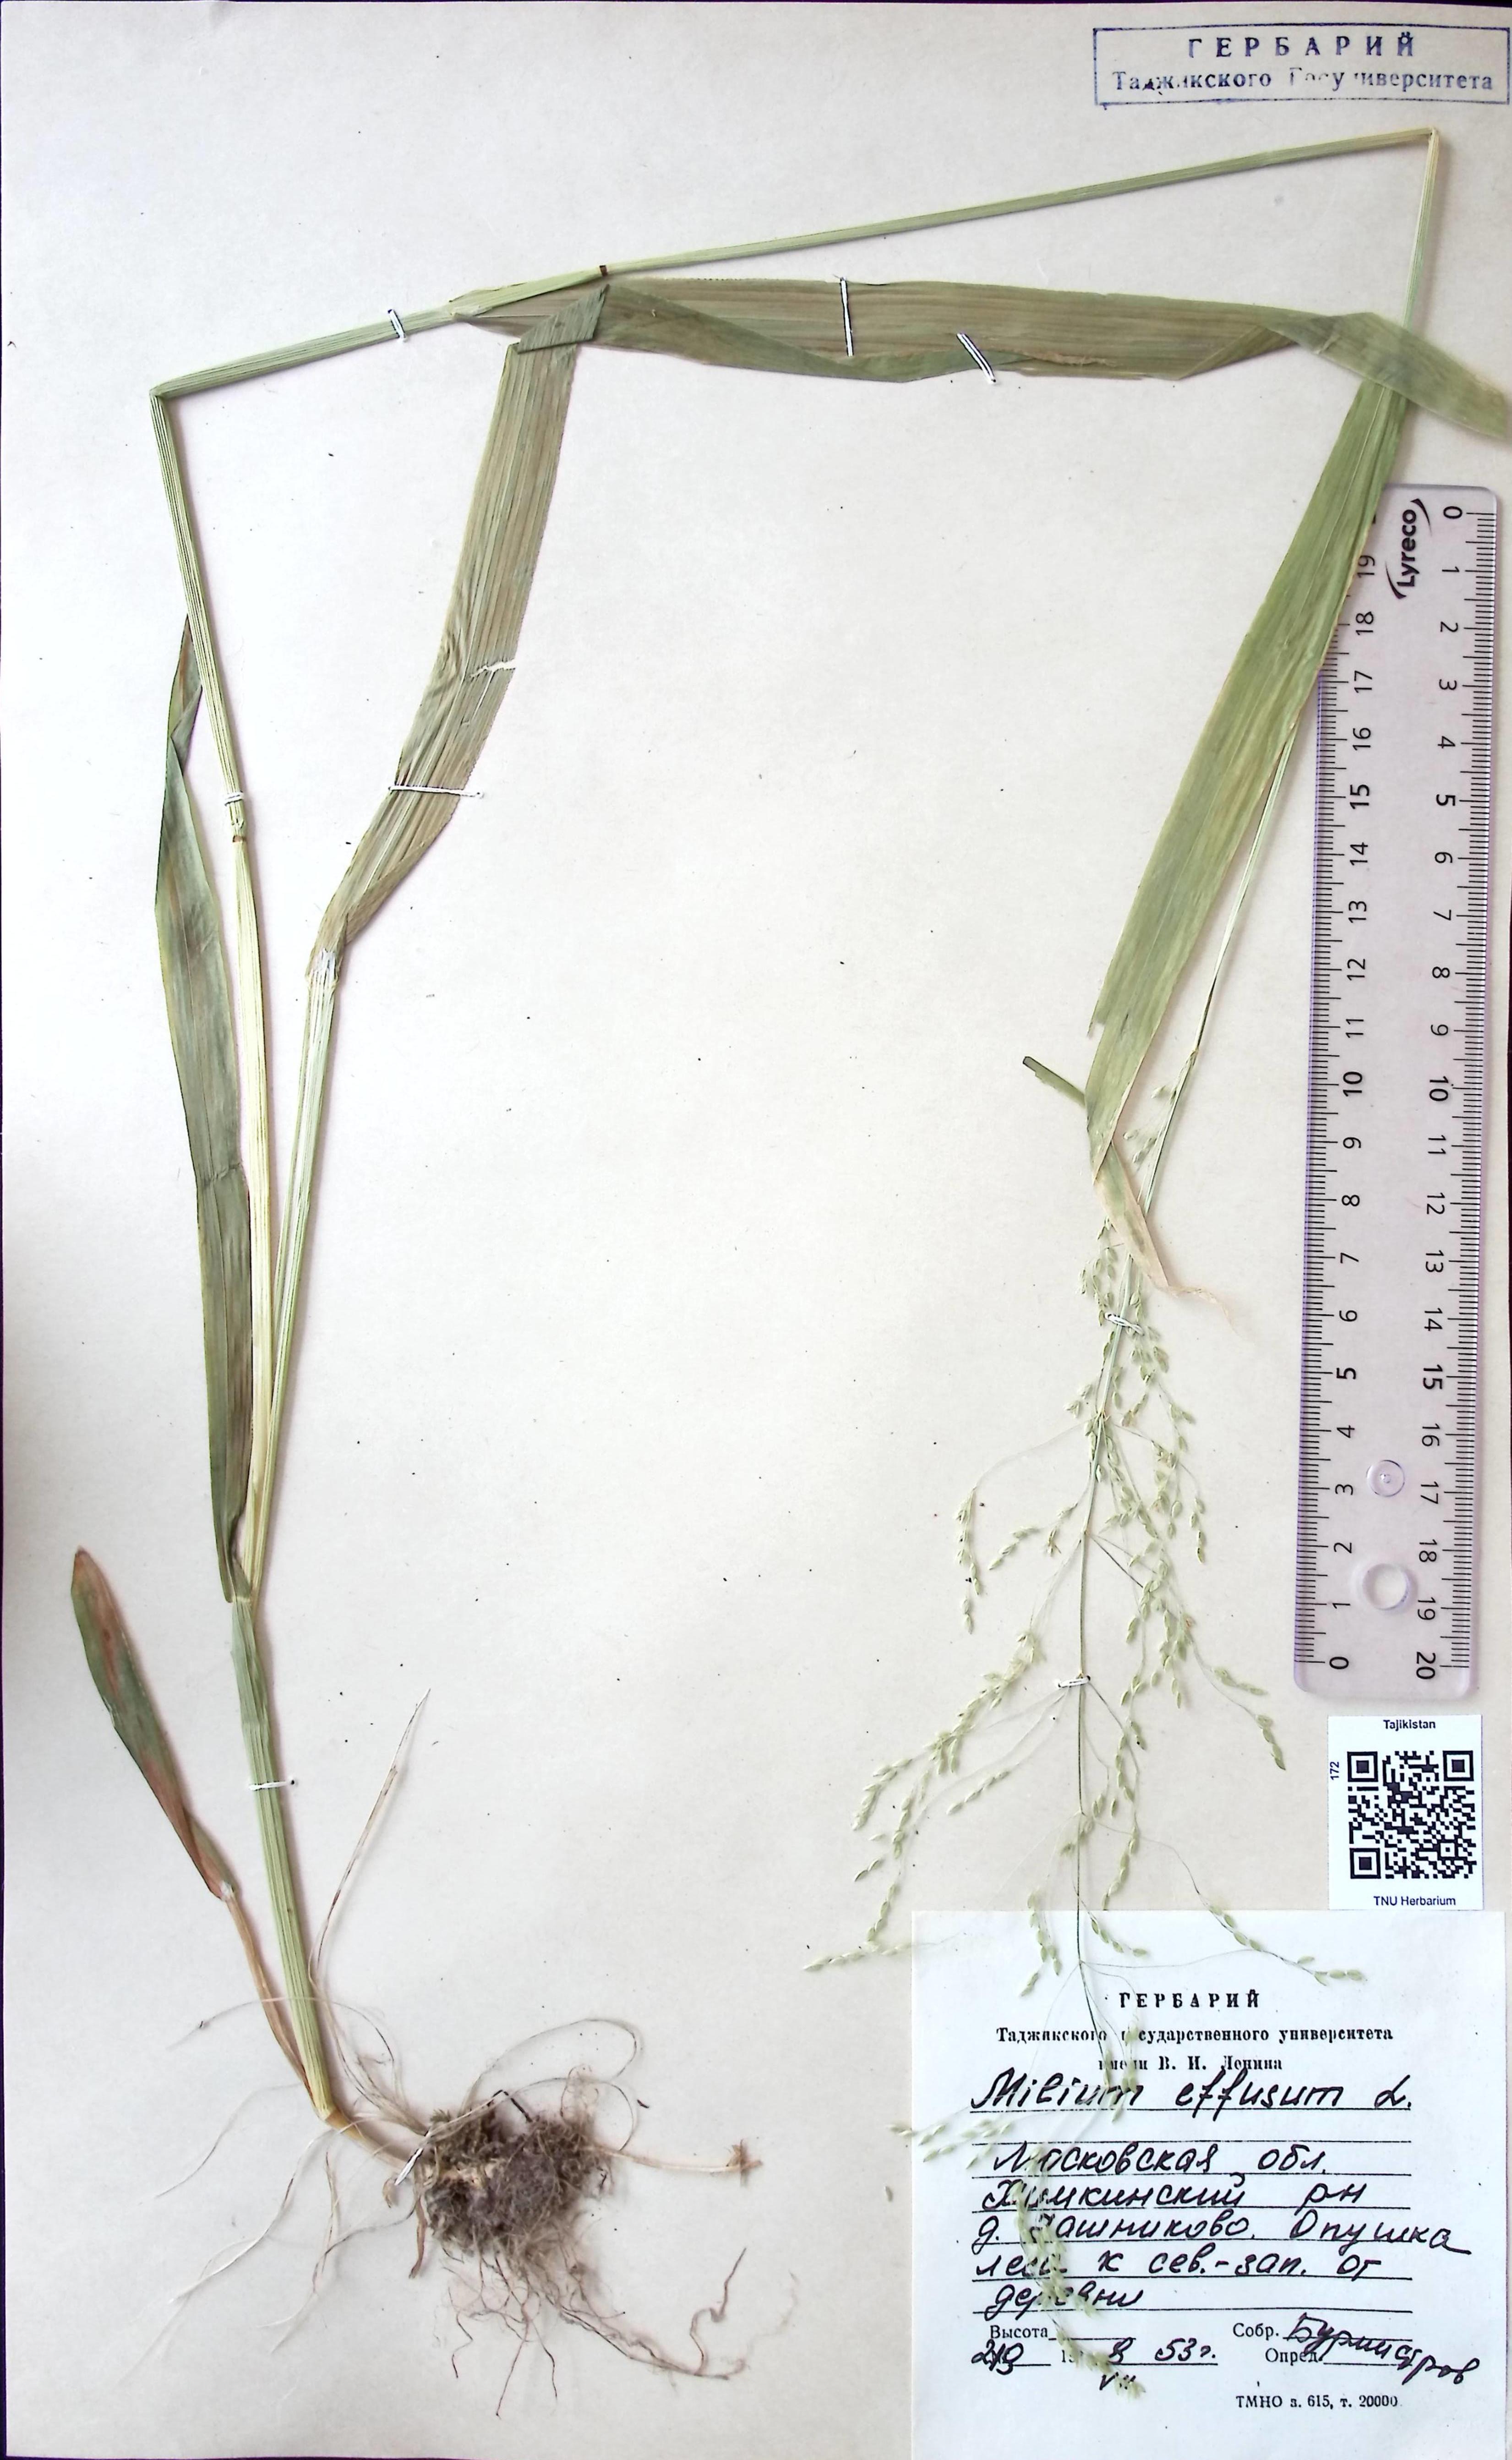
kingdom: Plantae
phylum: Tracheophyta
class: Liliopsida
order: Poales
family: Poaceae
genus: Milium
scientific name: Milium effusum
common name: Wood millet
